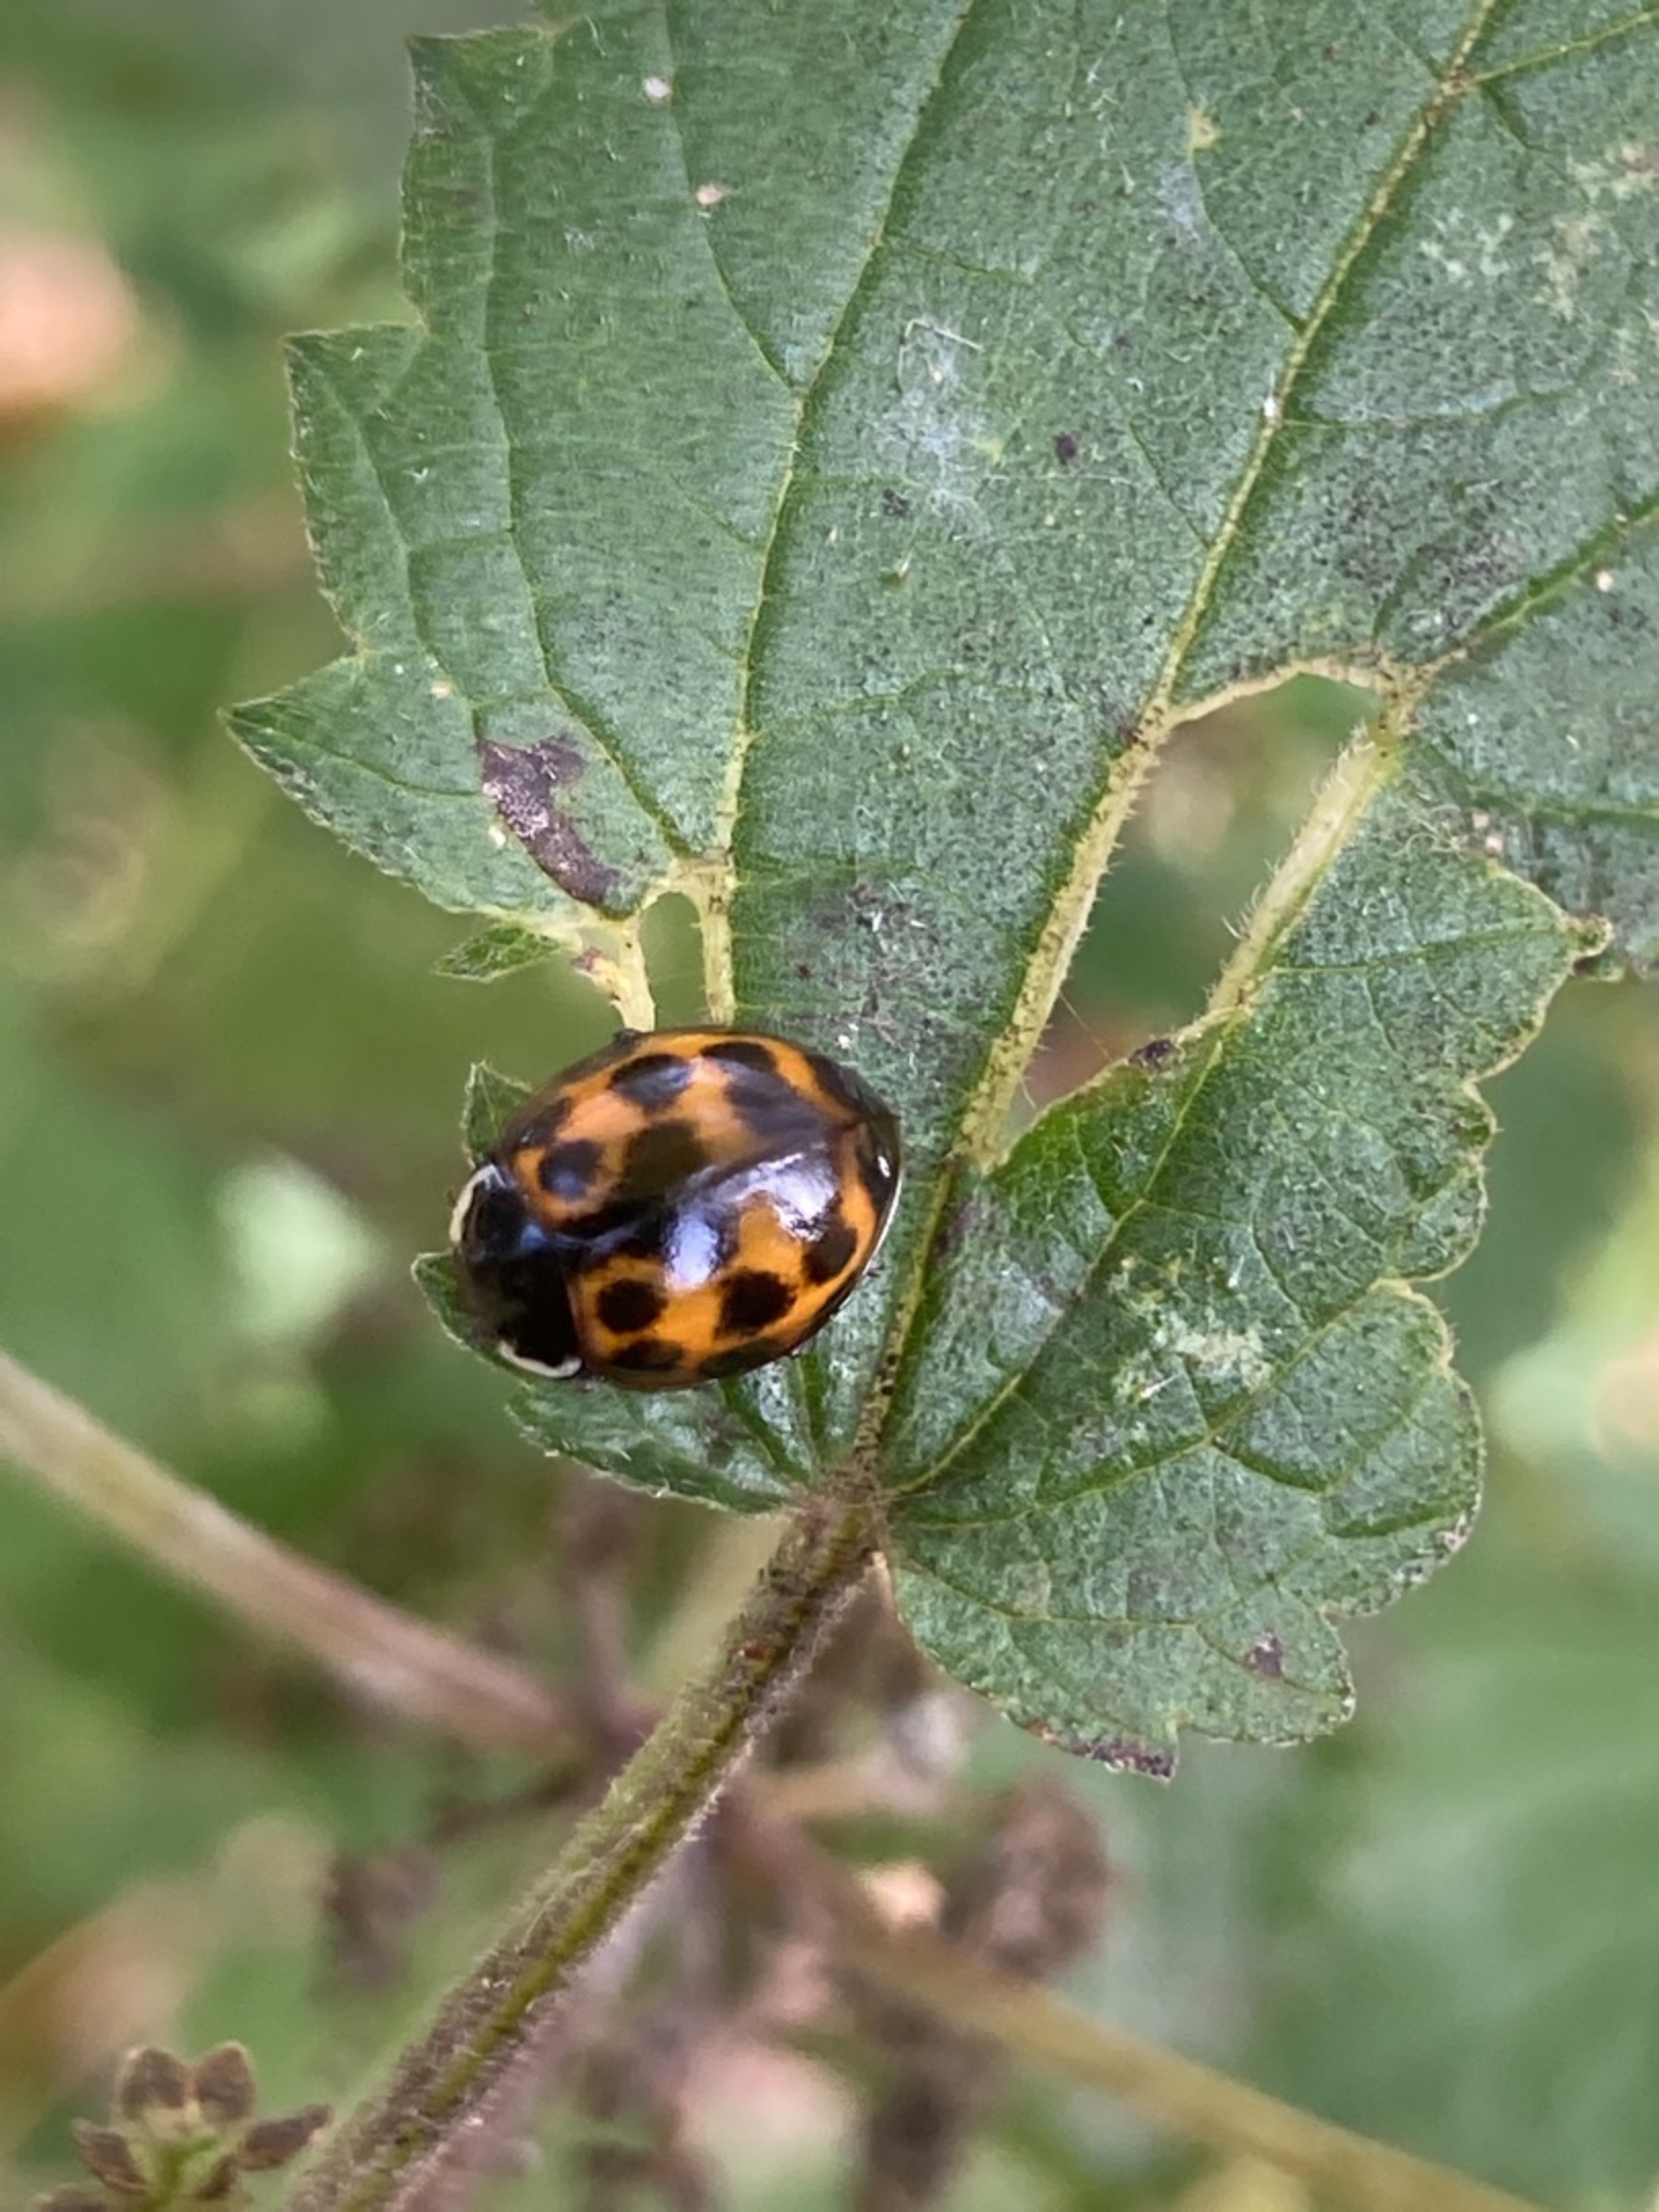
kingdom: Animalia
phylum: Arthropoda
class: Insecta
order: Coleoptera
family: Coccinellidae
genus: Harmonia
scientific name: Harmonia axyridis
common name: Harlekinmariehøne
